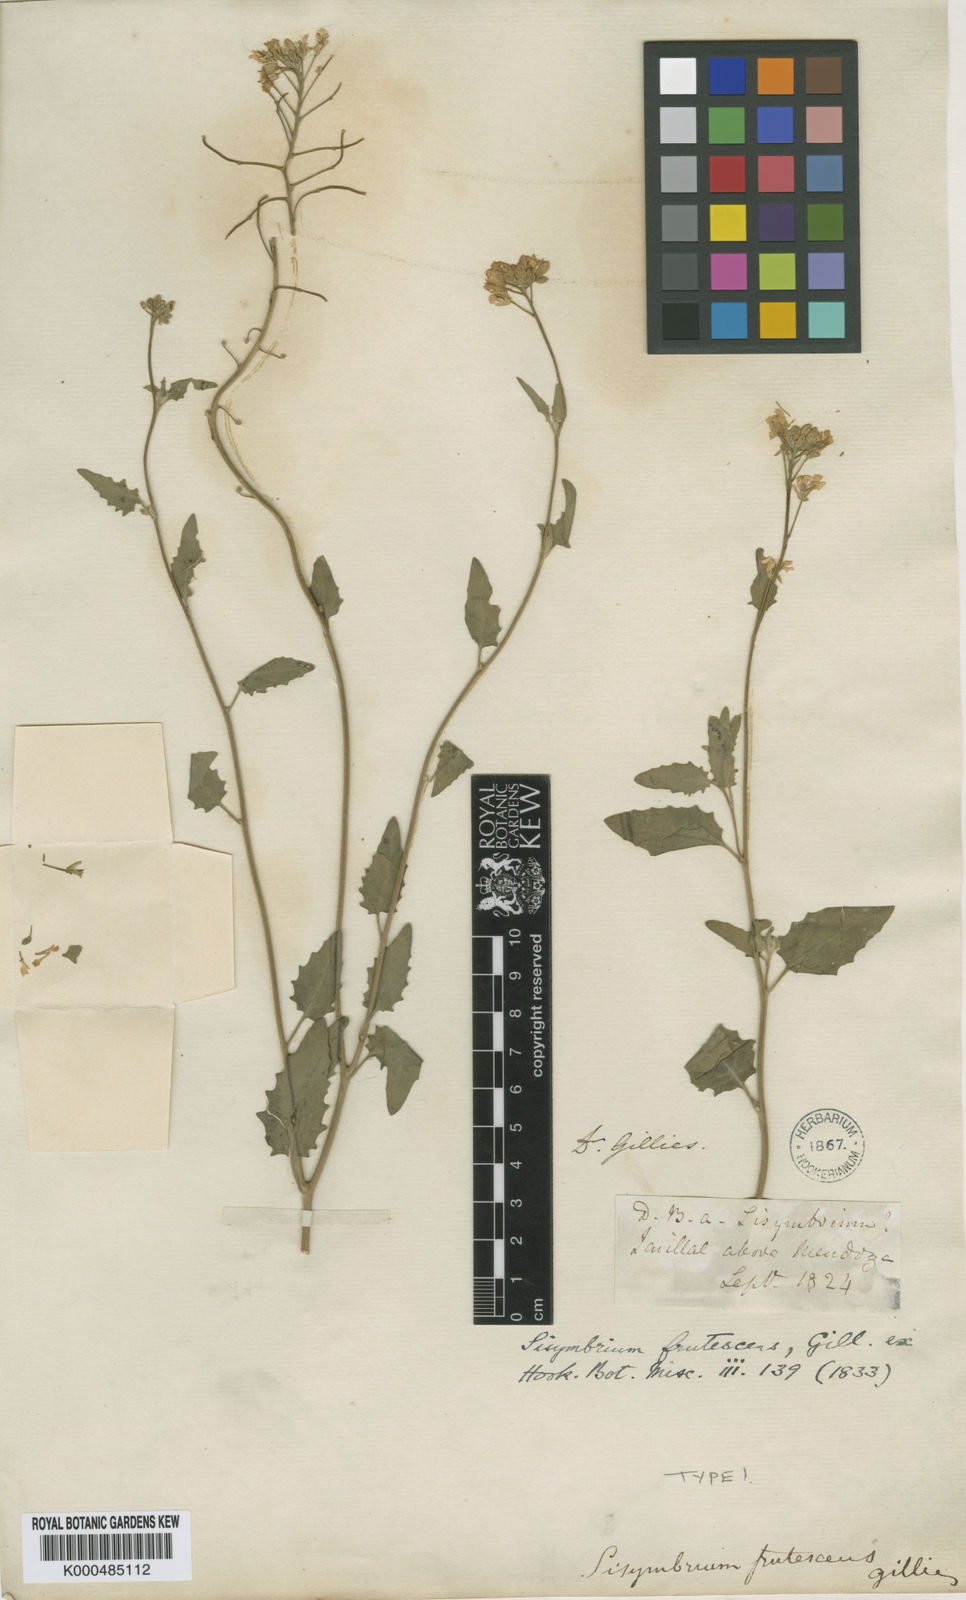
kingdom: Plantae
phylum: Tracheophyta
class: Magnoliopsida
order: Brassicales
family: Brassicaceae
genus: Neuontobotrys
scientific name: Neuontobotrys frutescens
